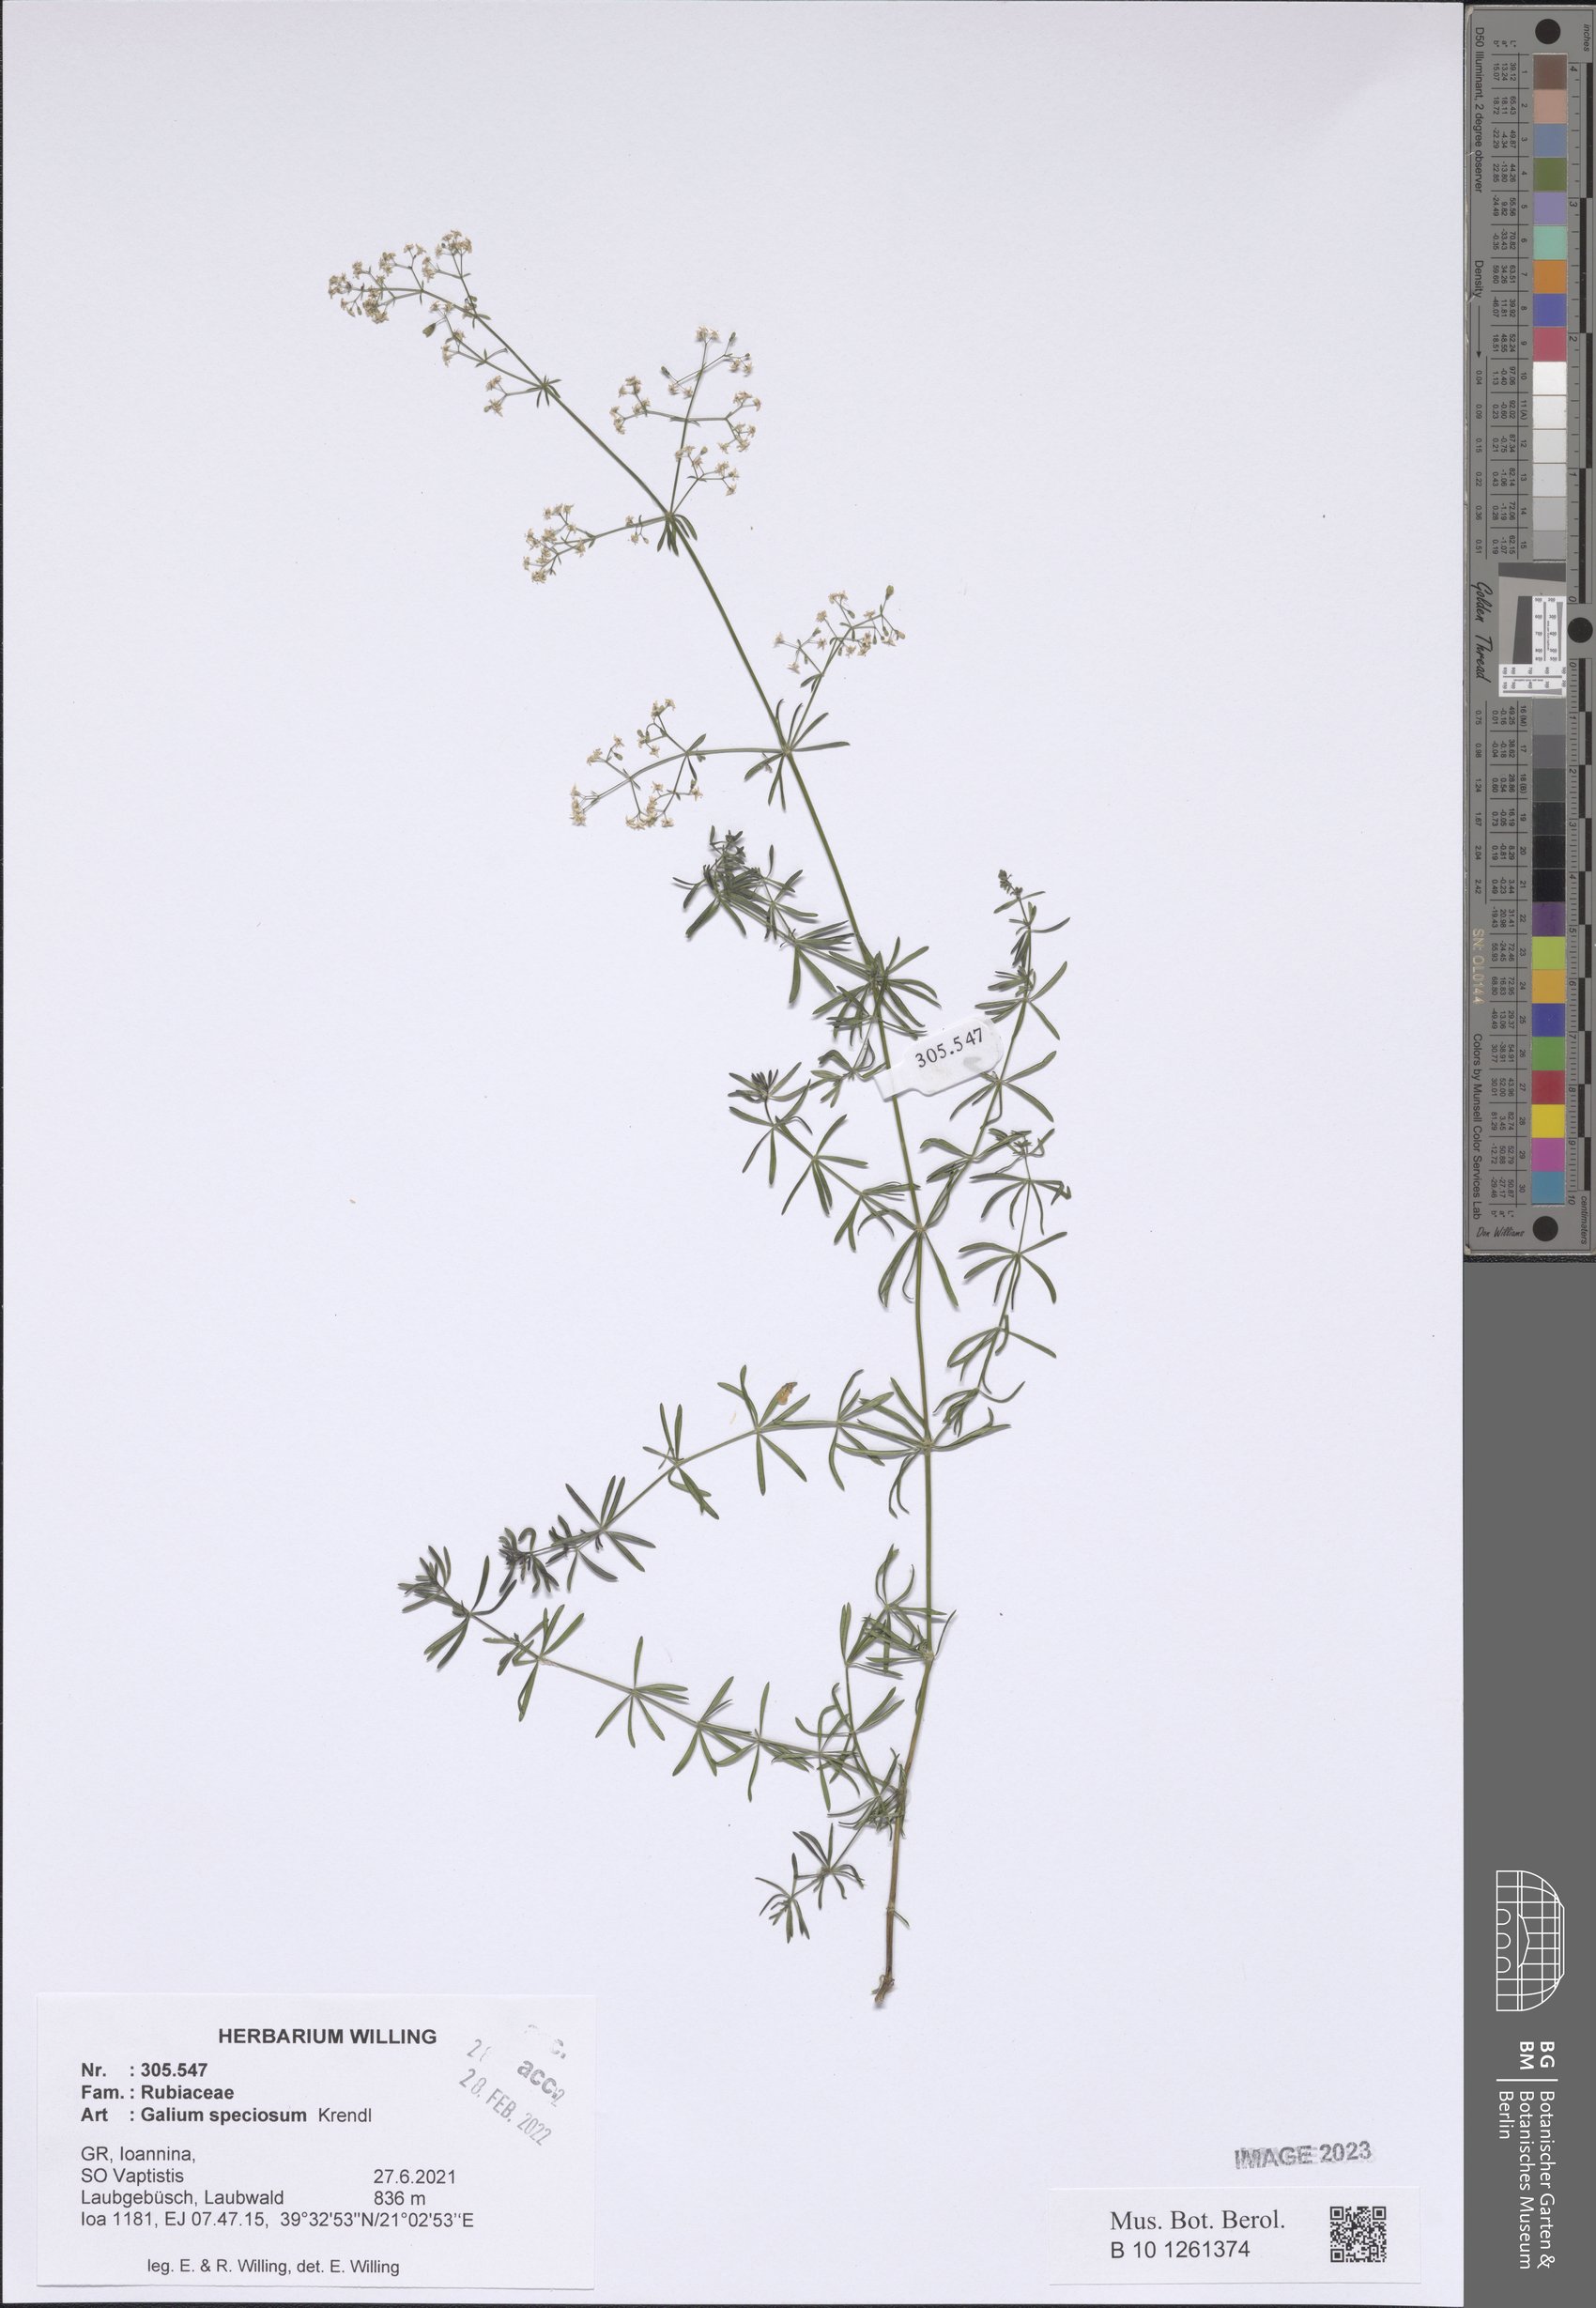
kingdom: Plantae
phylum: Tracheophyta
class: Magnoliopsida
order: Gentianales
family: Rubiaceae
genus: Galium
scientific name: Galium speciosum
